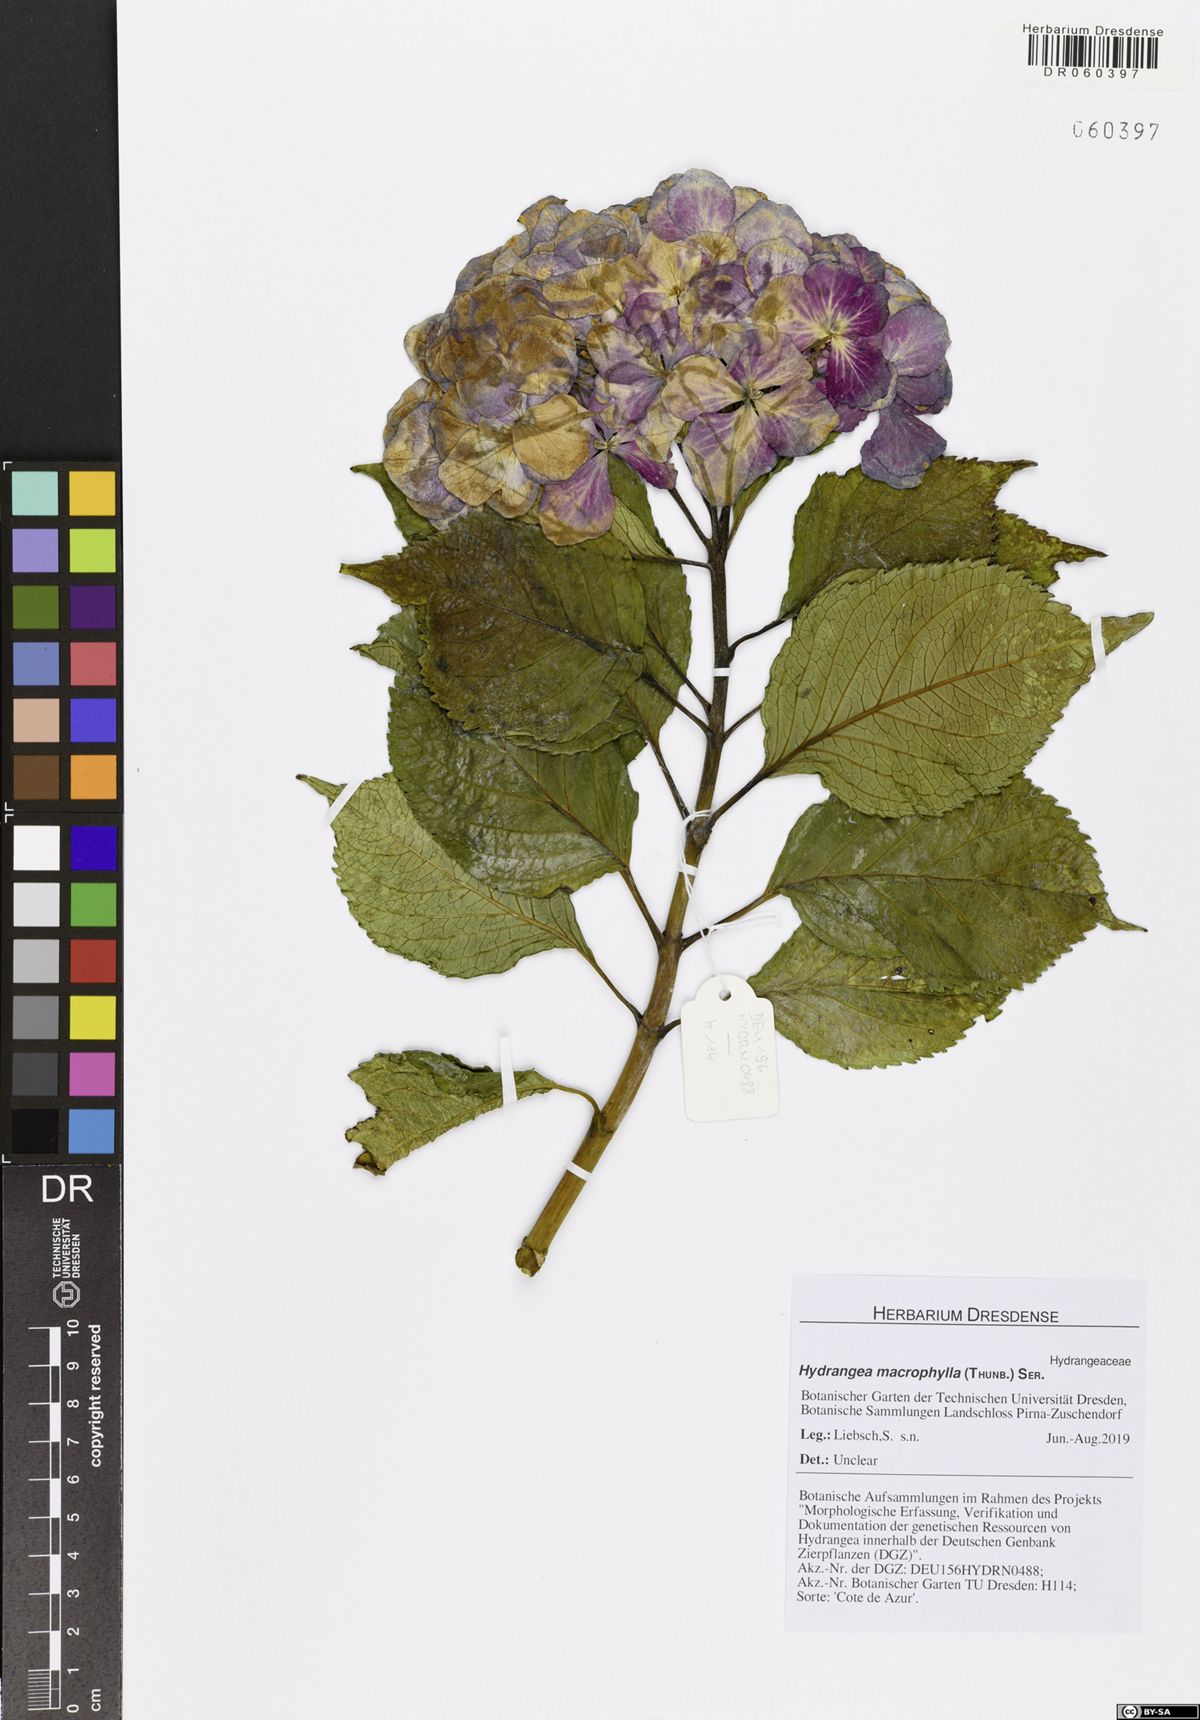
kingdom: Plantae
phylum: Tracheophyta
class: Magnoliopsida
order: Cornales
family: Hydrangeaceae
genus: Hydrangea
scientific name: Hydrangea macrophylla
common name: Hydrangea
